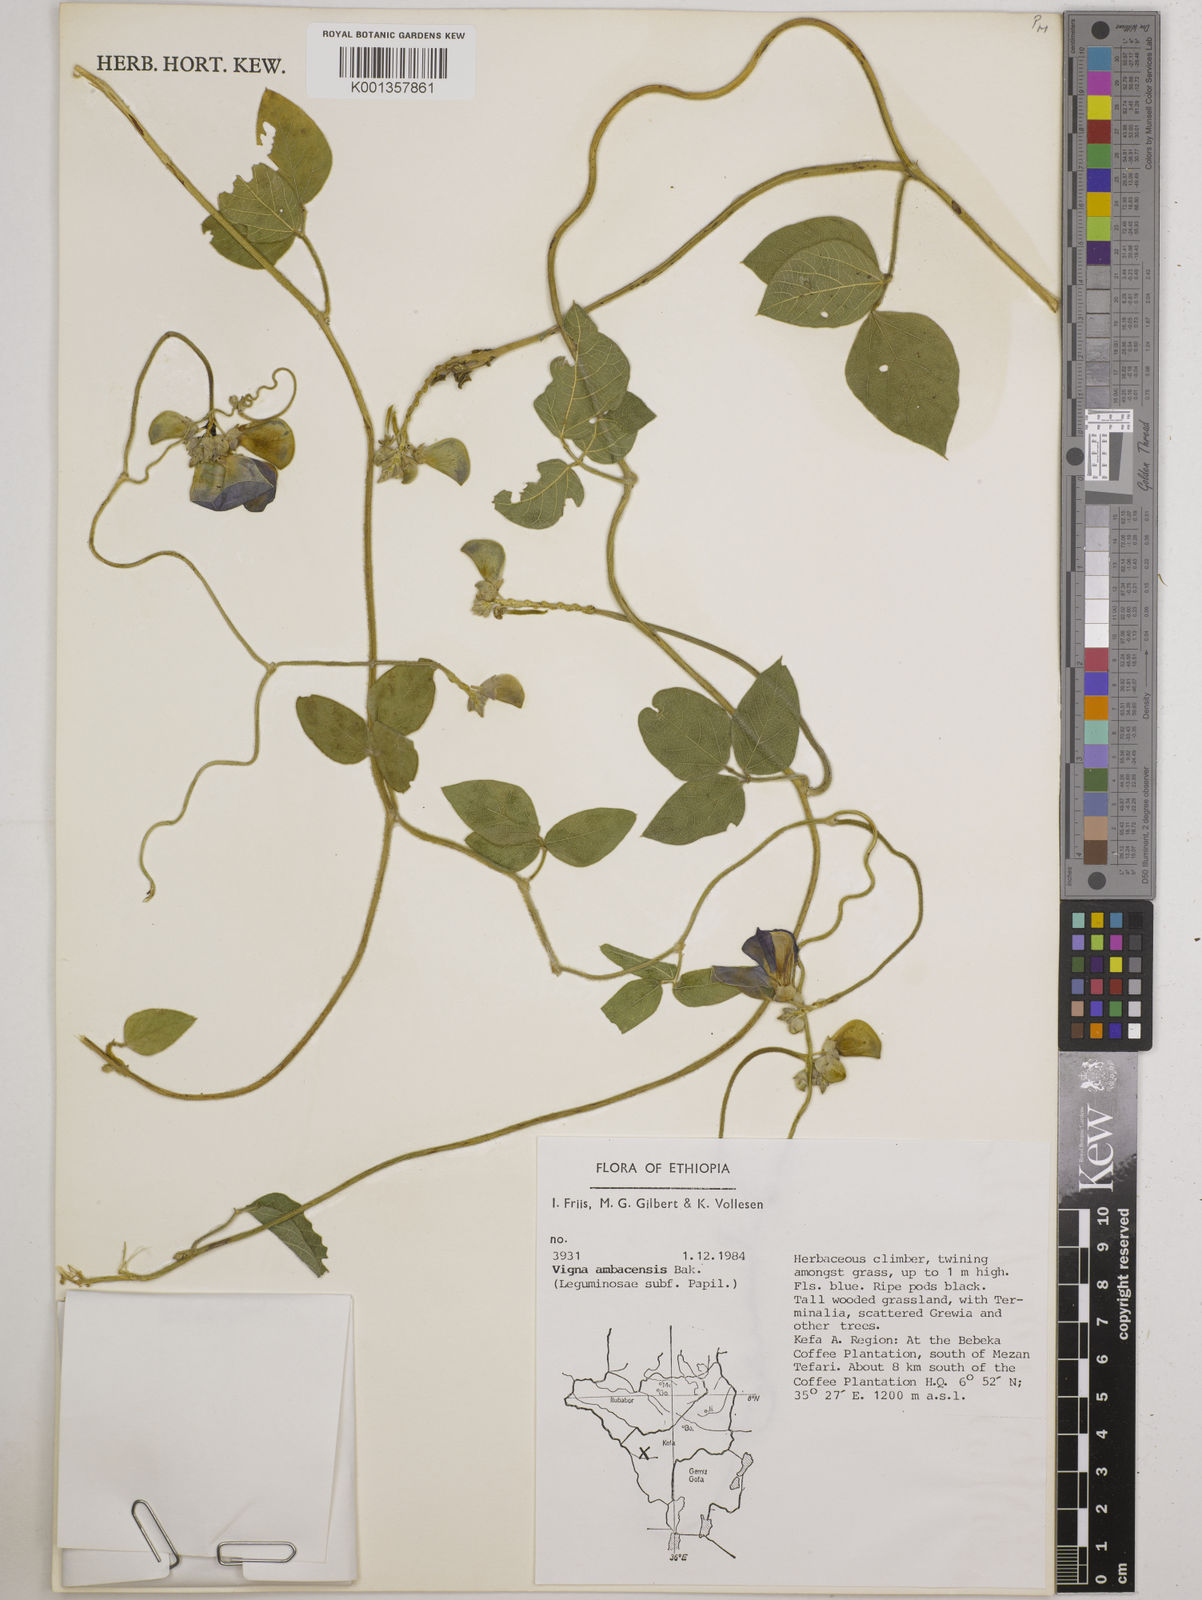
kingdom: Plantae
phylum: Tracheophyta
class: Magnoliopsida
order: Fabales
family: Fabaceae
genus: Vigna
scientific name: Vigna ambacensis
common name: Tsarkiyan zomo
